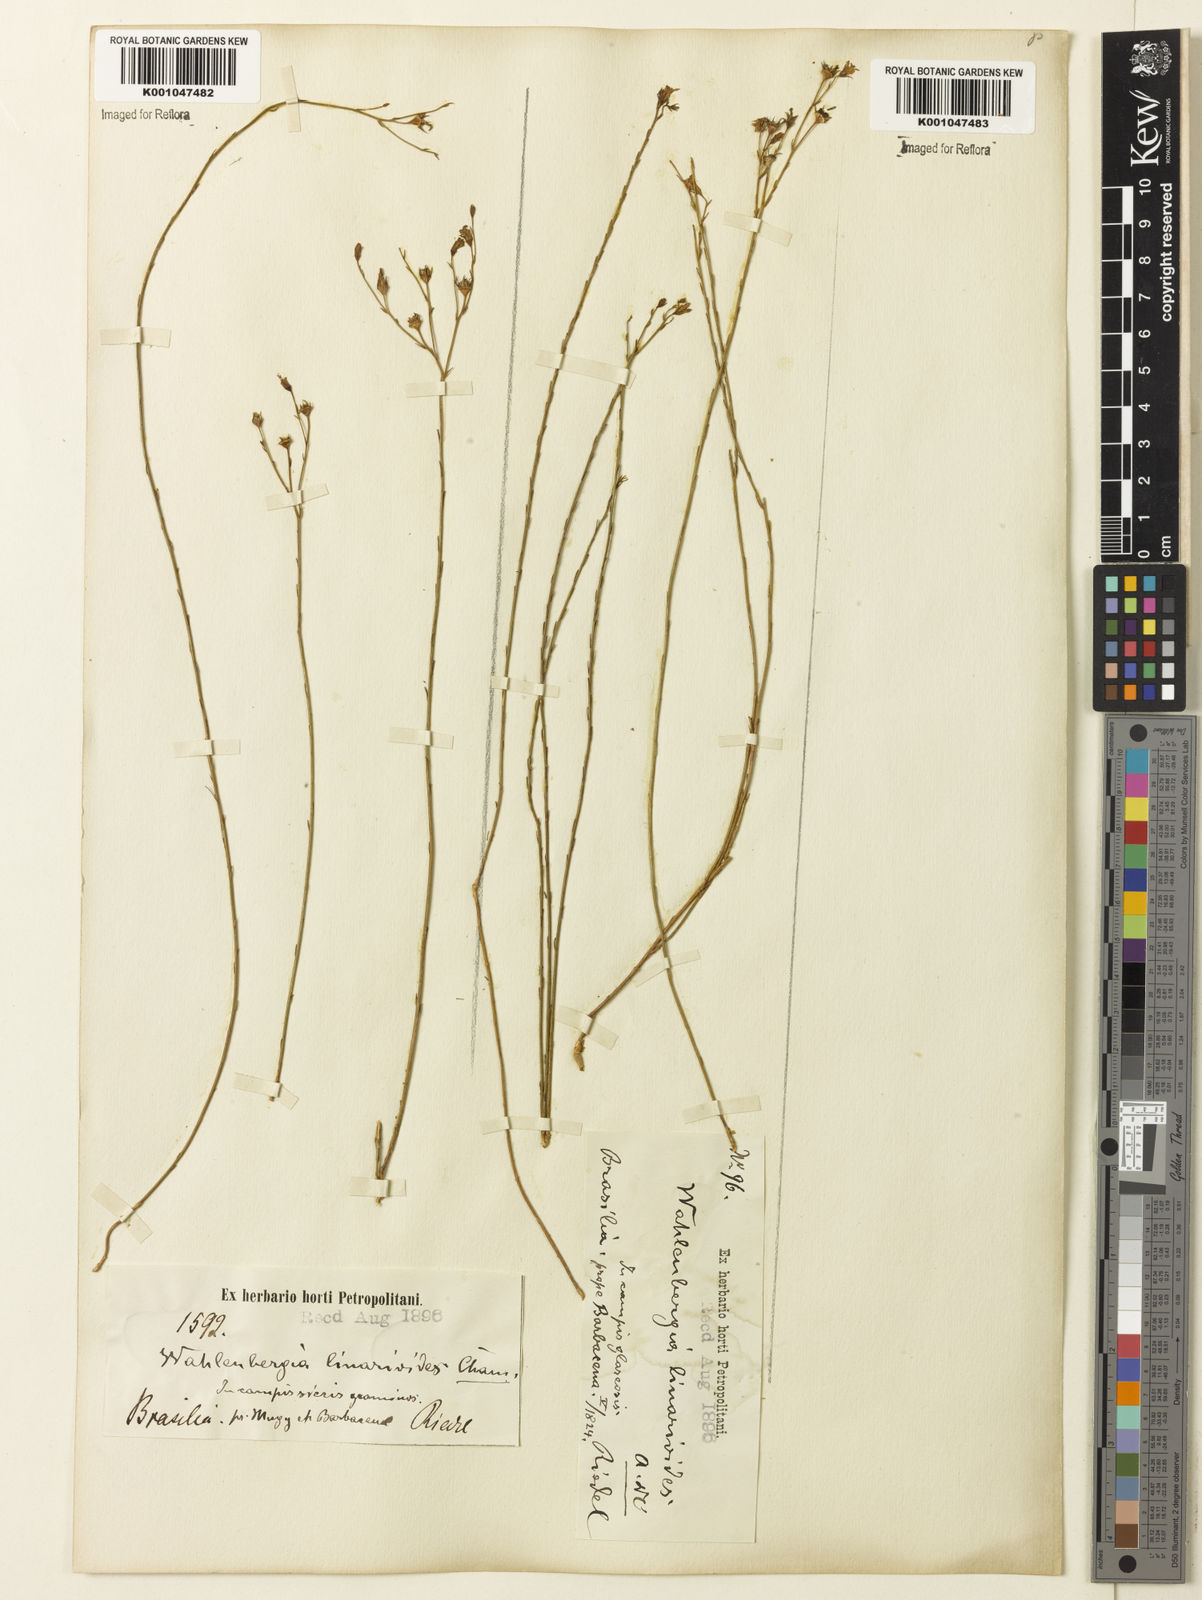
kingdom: Plantae
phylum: Tracheophyta
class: Magnoliopsida
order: Asterales
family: Campanulaceae
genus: Wahlenbergia
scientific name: Wahlenbergia brasiliensis
